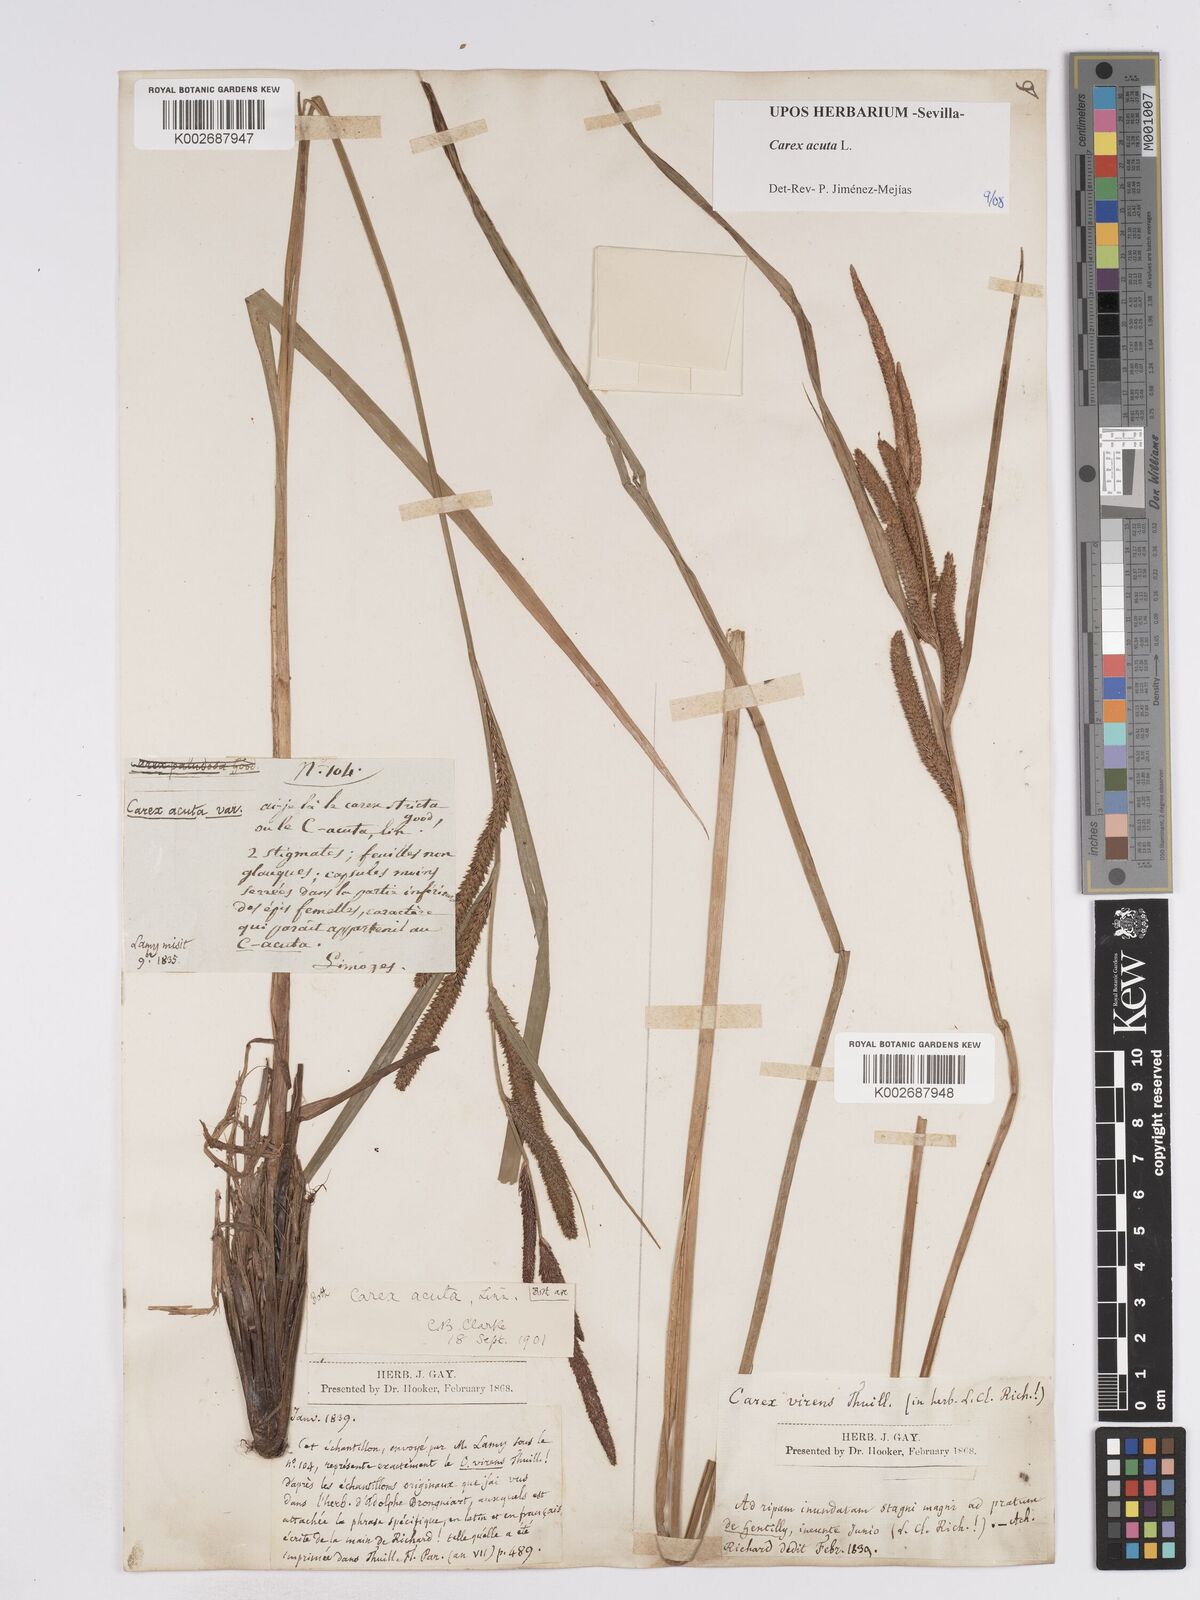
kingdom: Plantae
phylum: Tracheophyta
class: Liliopsida
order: Poales
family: Cyperaceae
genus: Carex
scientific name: Carex acuta
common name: Slender tufted-sedge
